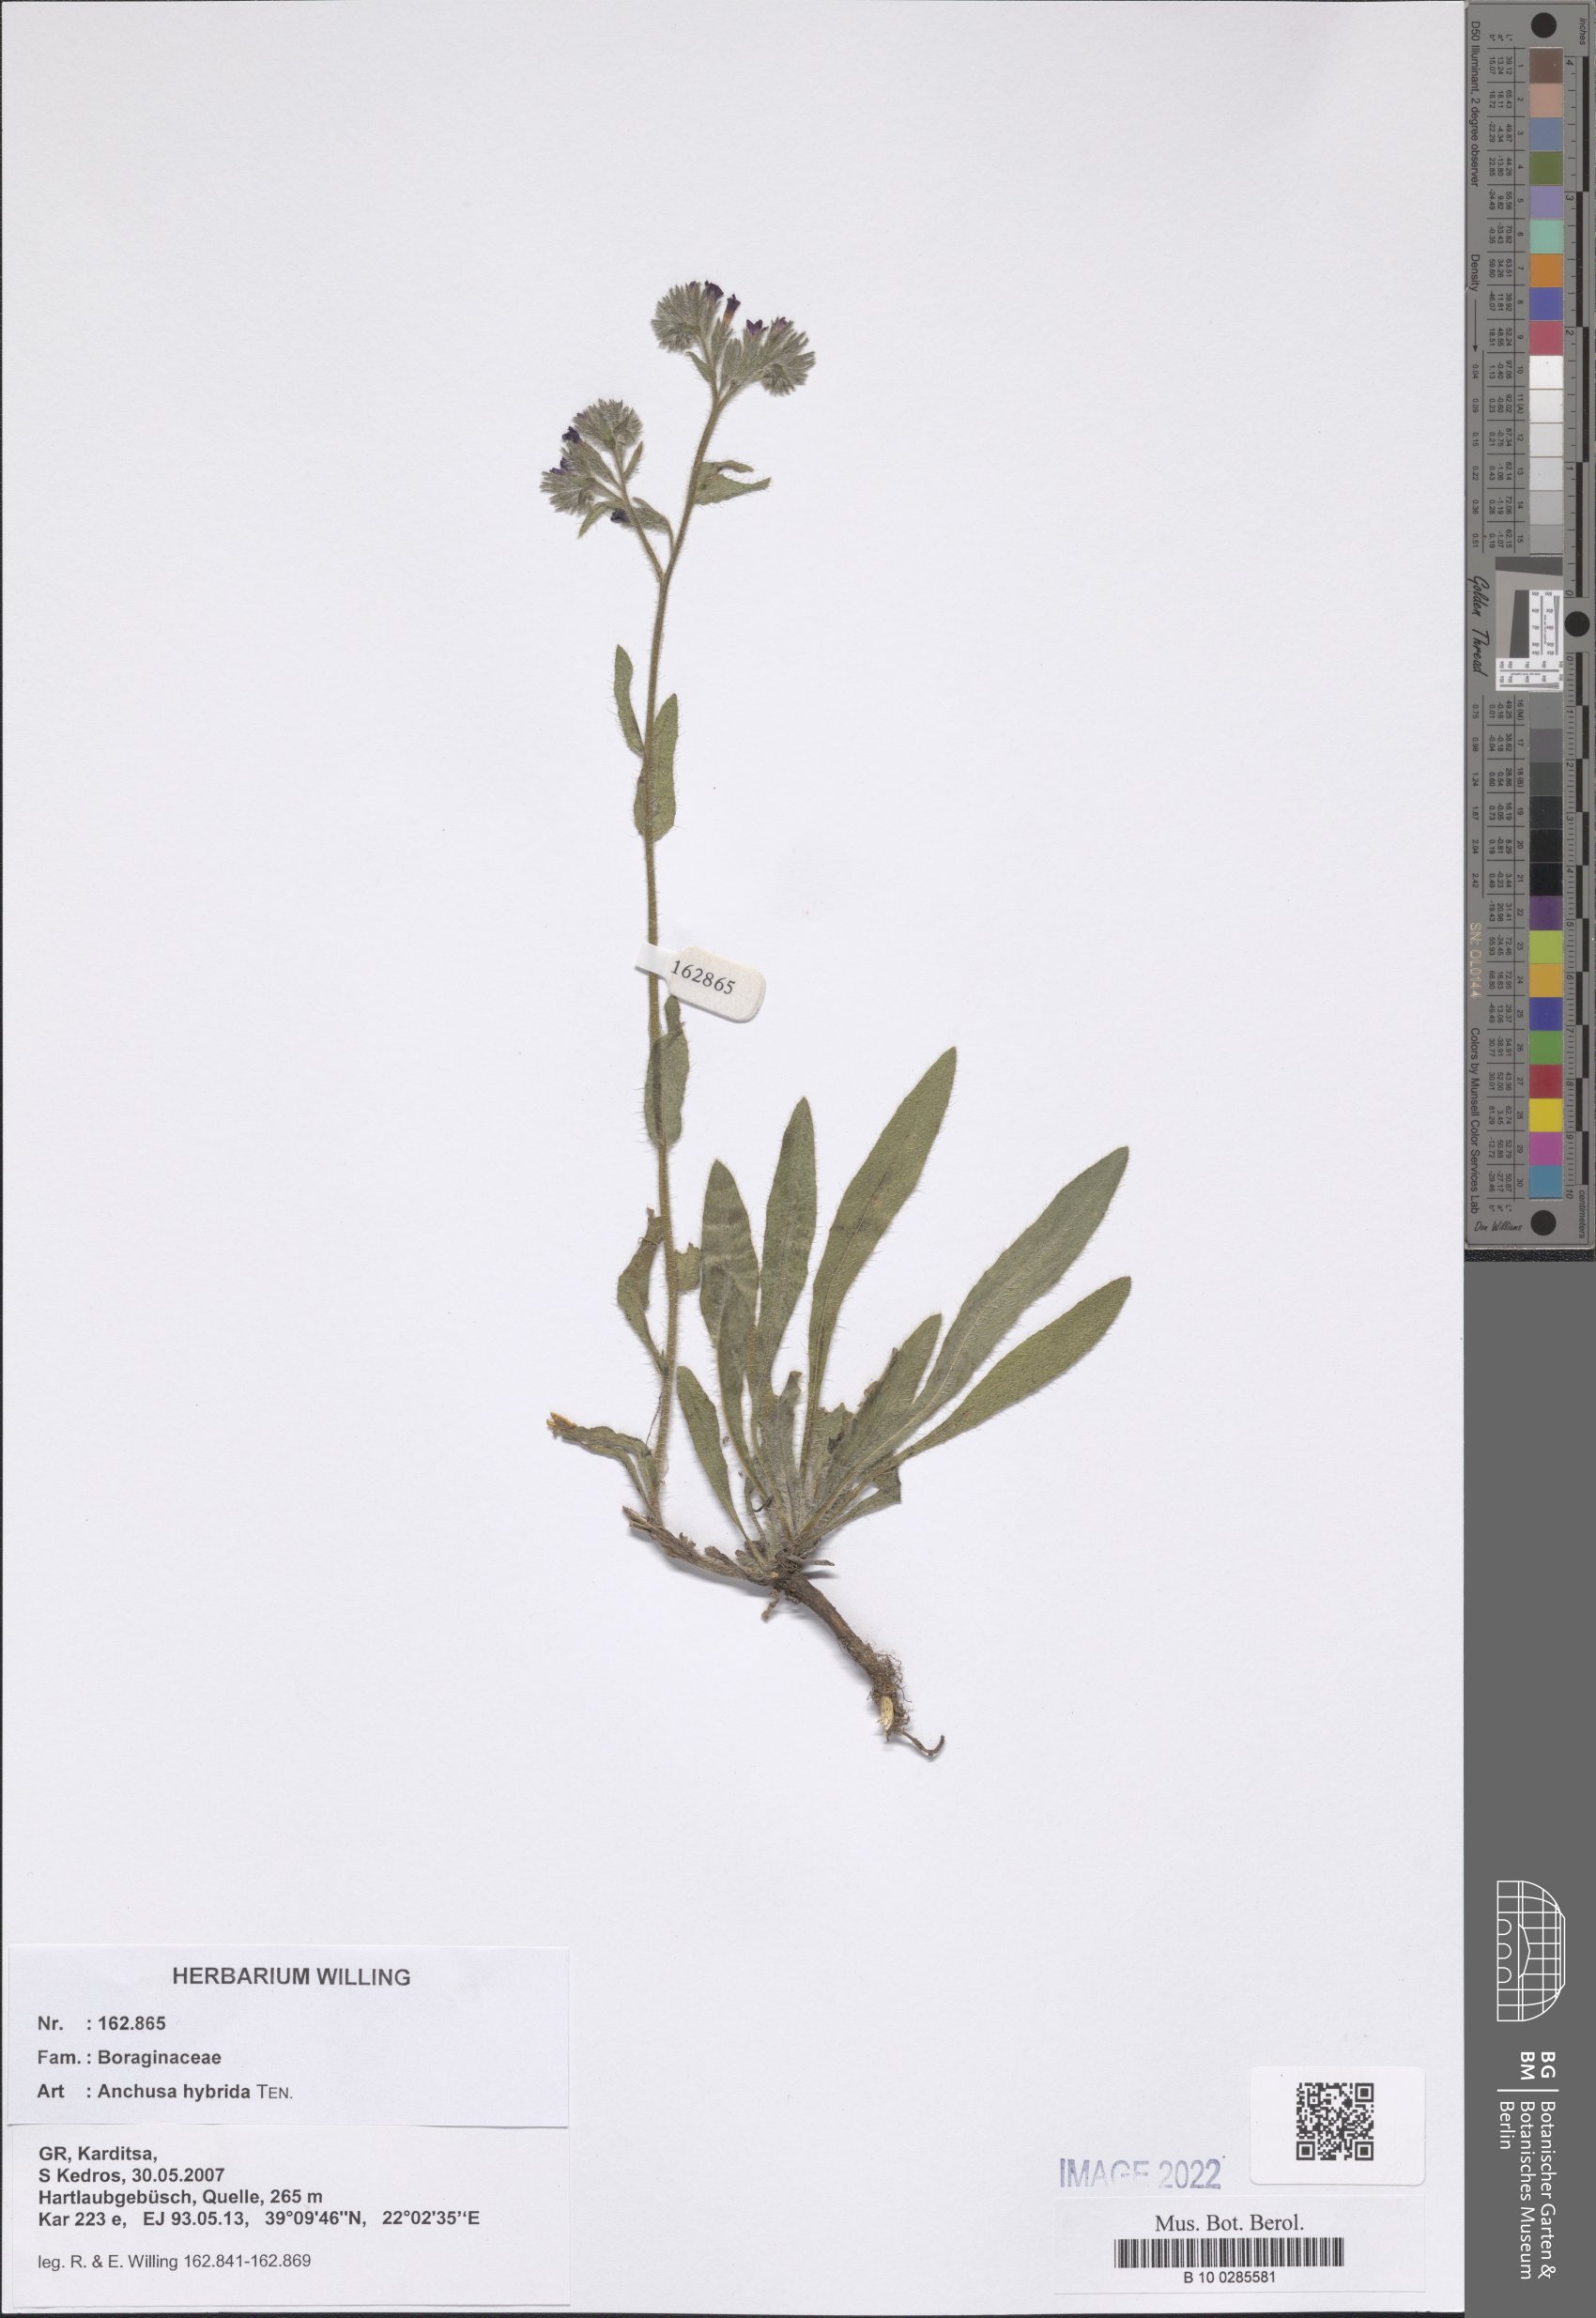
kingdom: Plantae
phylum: Tracheophyta
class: Magnoliopsida
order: Boraginales
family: Boraginaceae
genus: Anchusa
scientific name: Anchusa hybrida
